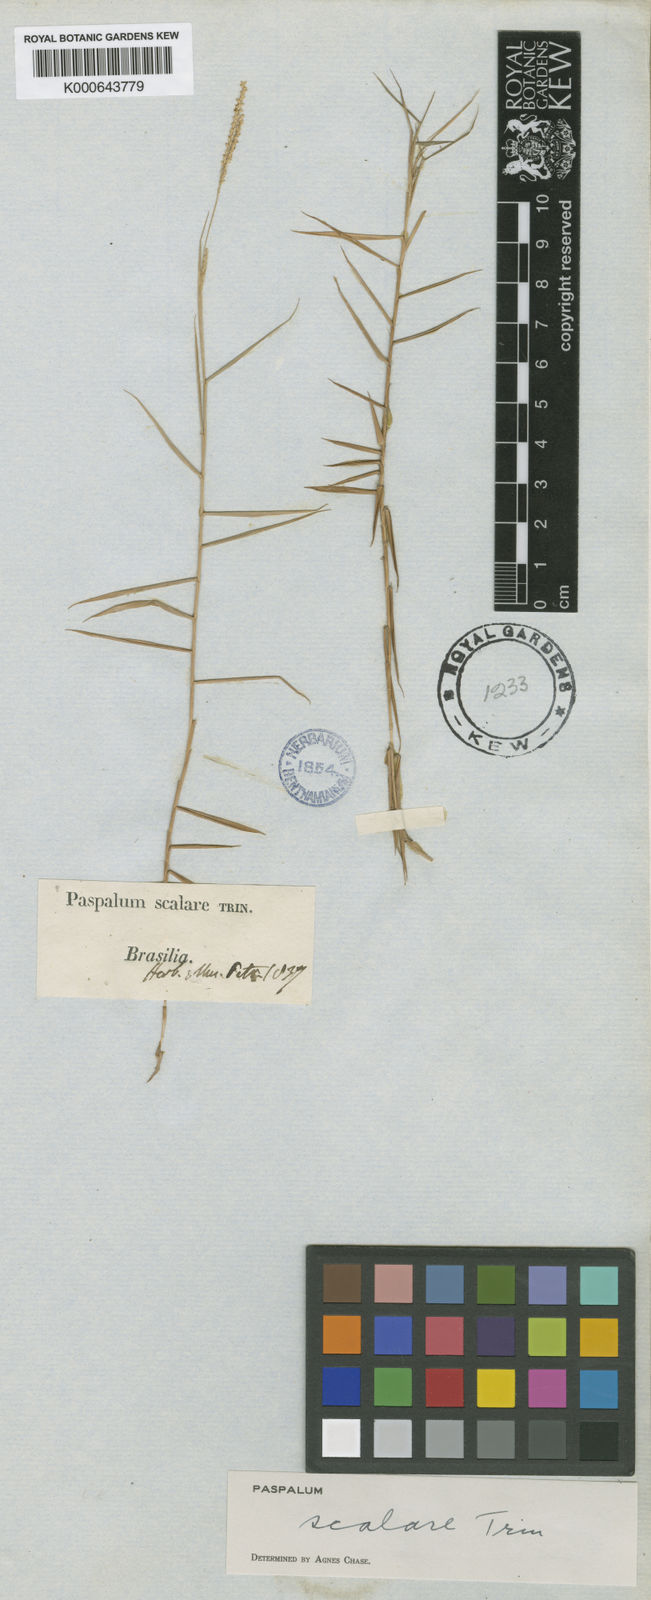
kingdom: Plantae
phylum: Tracheophyta
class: Liliopsida
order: Poales
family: Poaceae
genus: Paspalum
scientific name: Paspalum scalare
